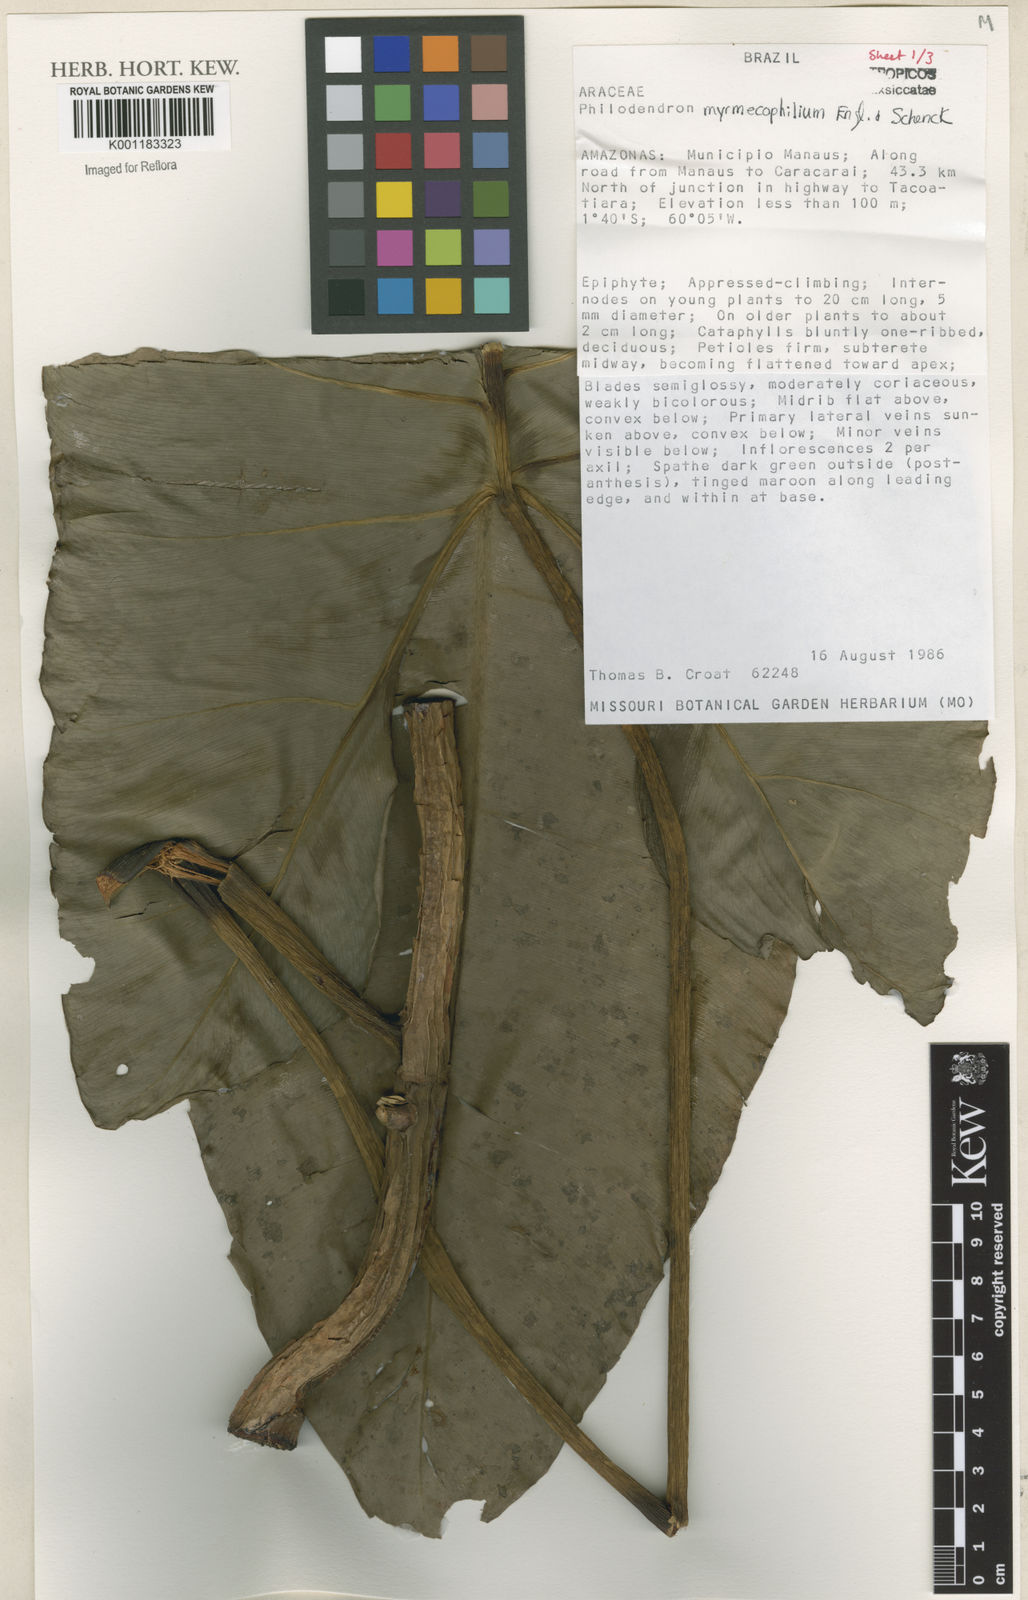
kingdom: Plantae
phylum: Tracheophyta
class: Liliopsida
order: Alismatales
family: Araceae
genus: Philodendron
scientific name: Philodendron myrmecophilum
